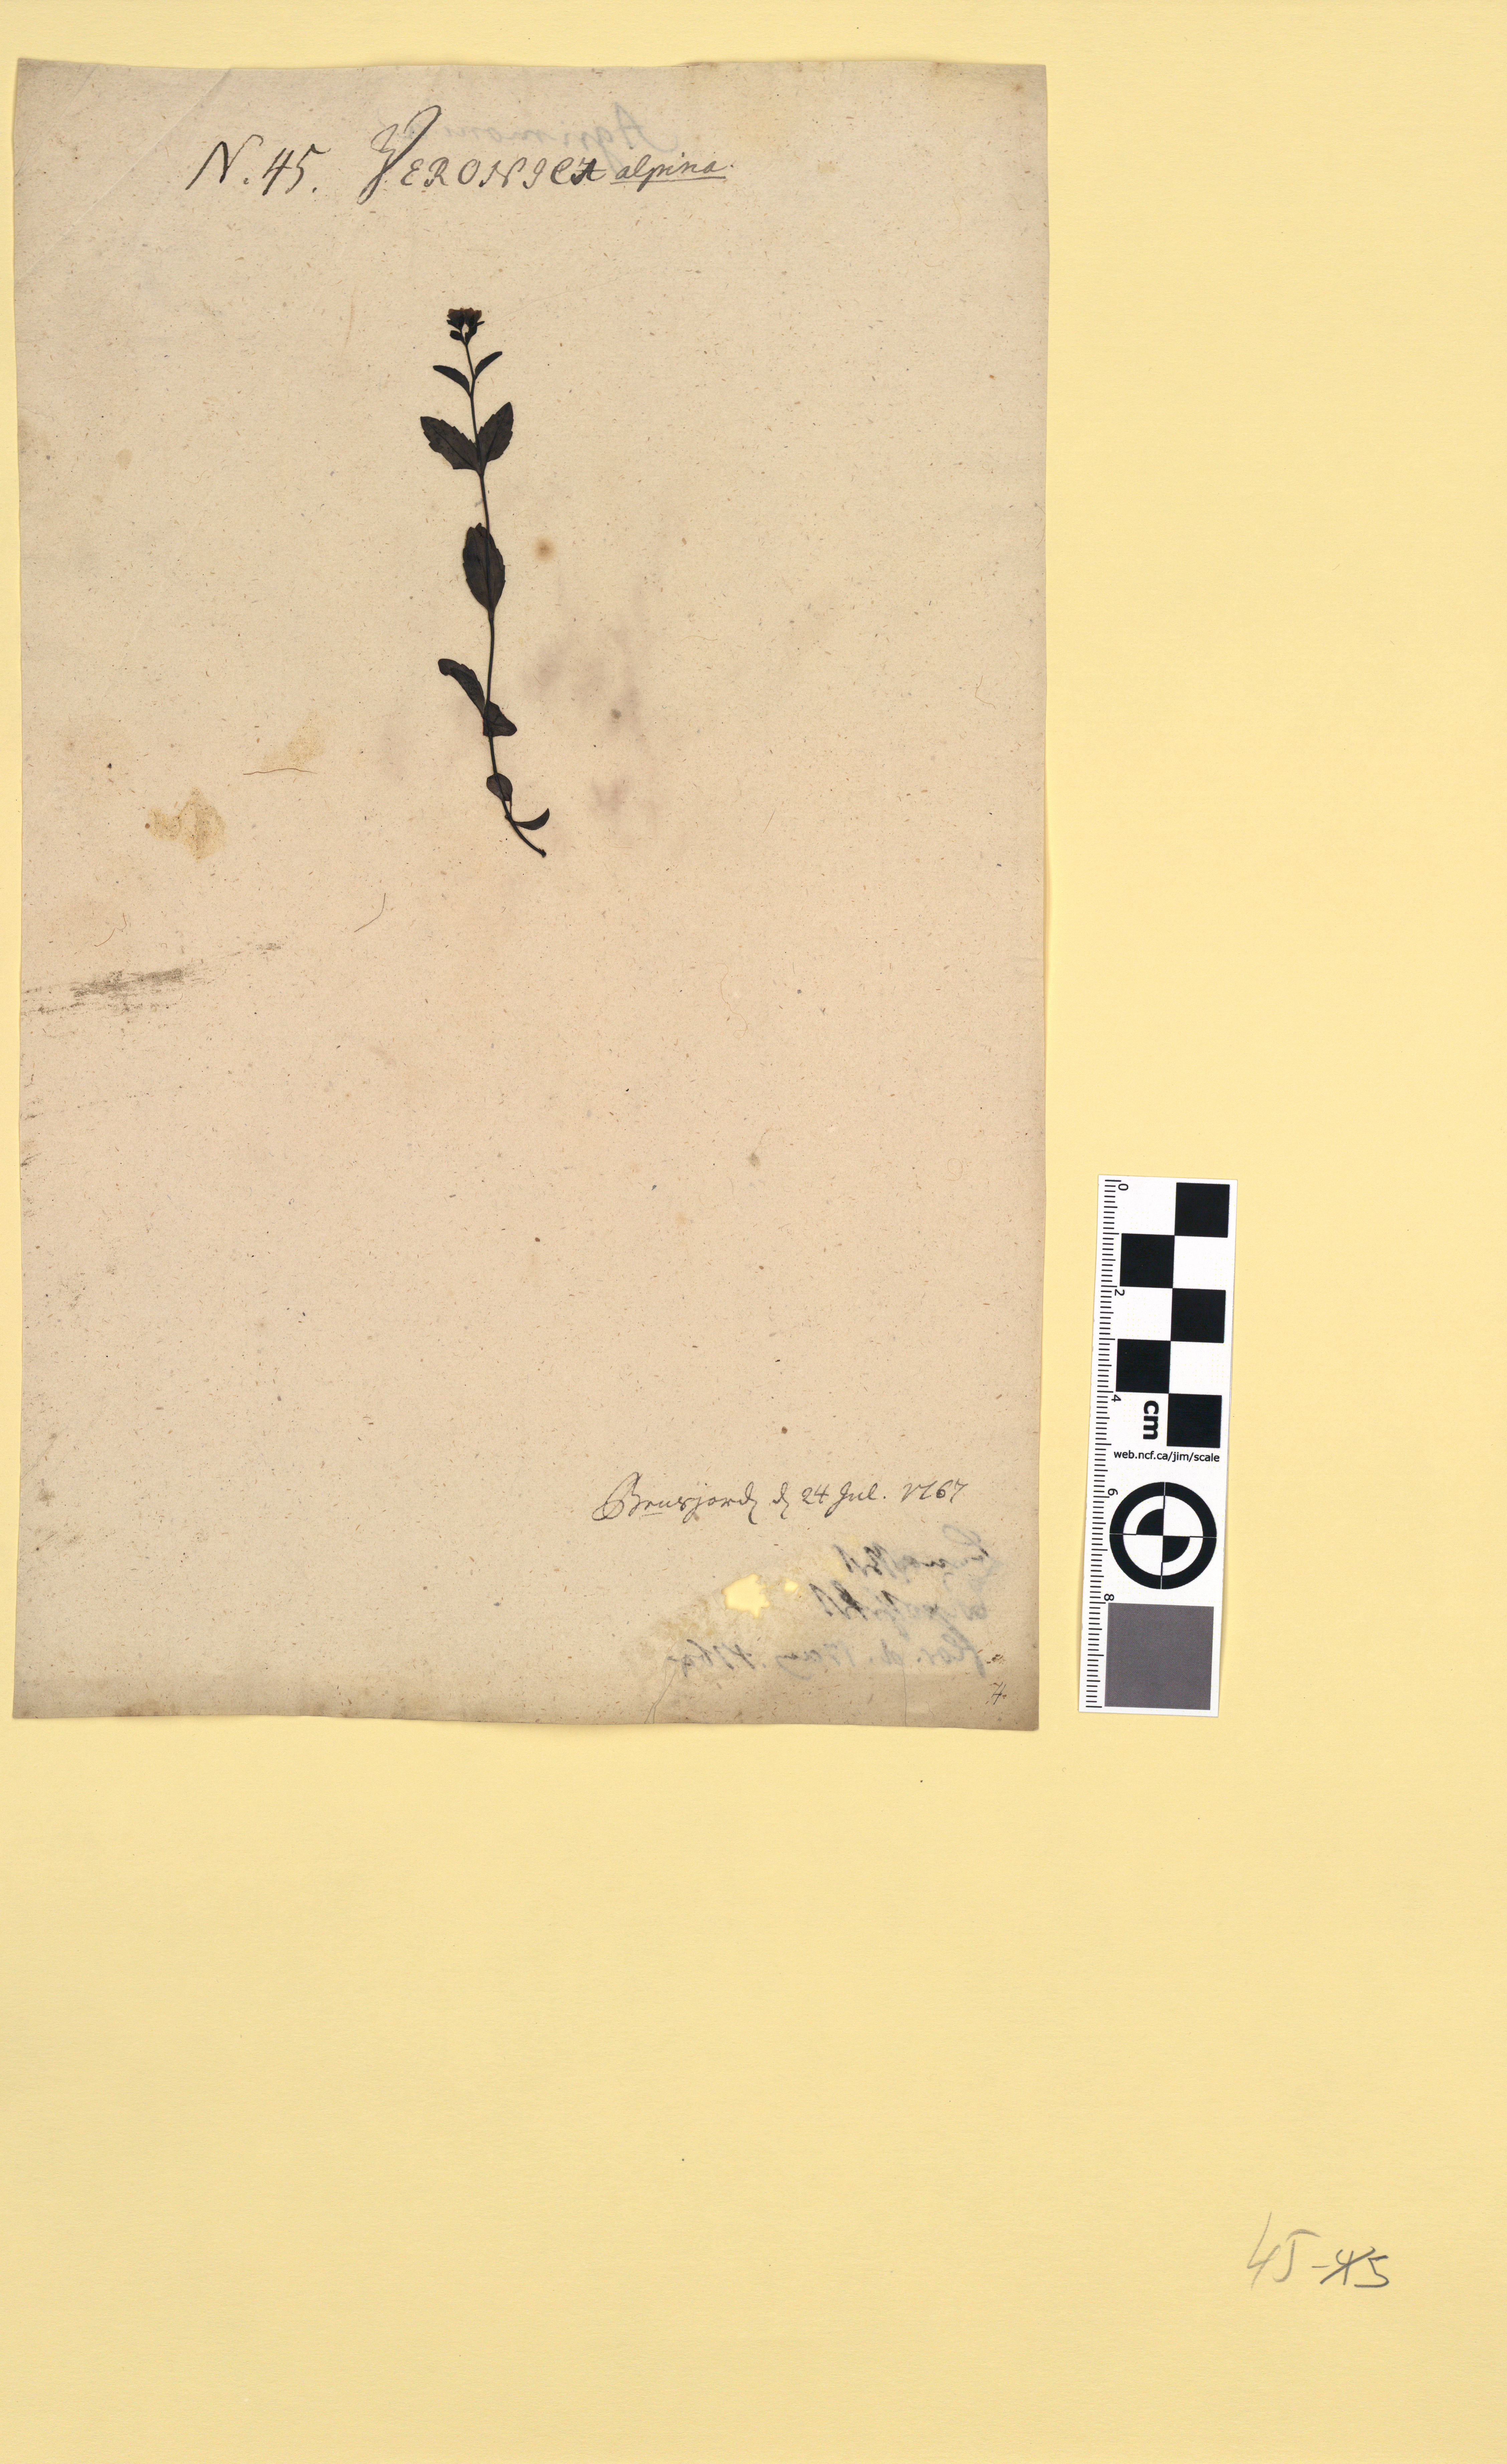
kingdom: Plantae
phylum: Tracheophyta
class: Magnoliopsida
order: Lamiales
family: Plantaginaceae
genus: Veronica
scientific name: Veronica alpina
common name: Alpine speedwell
